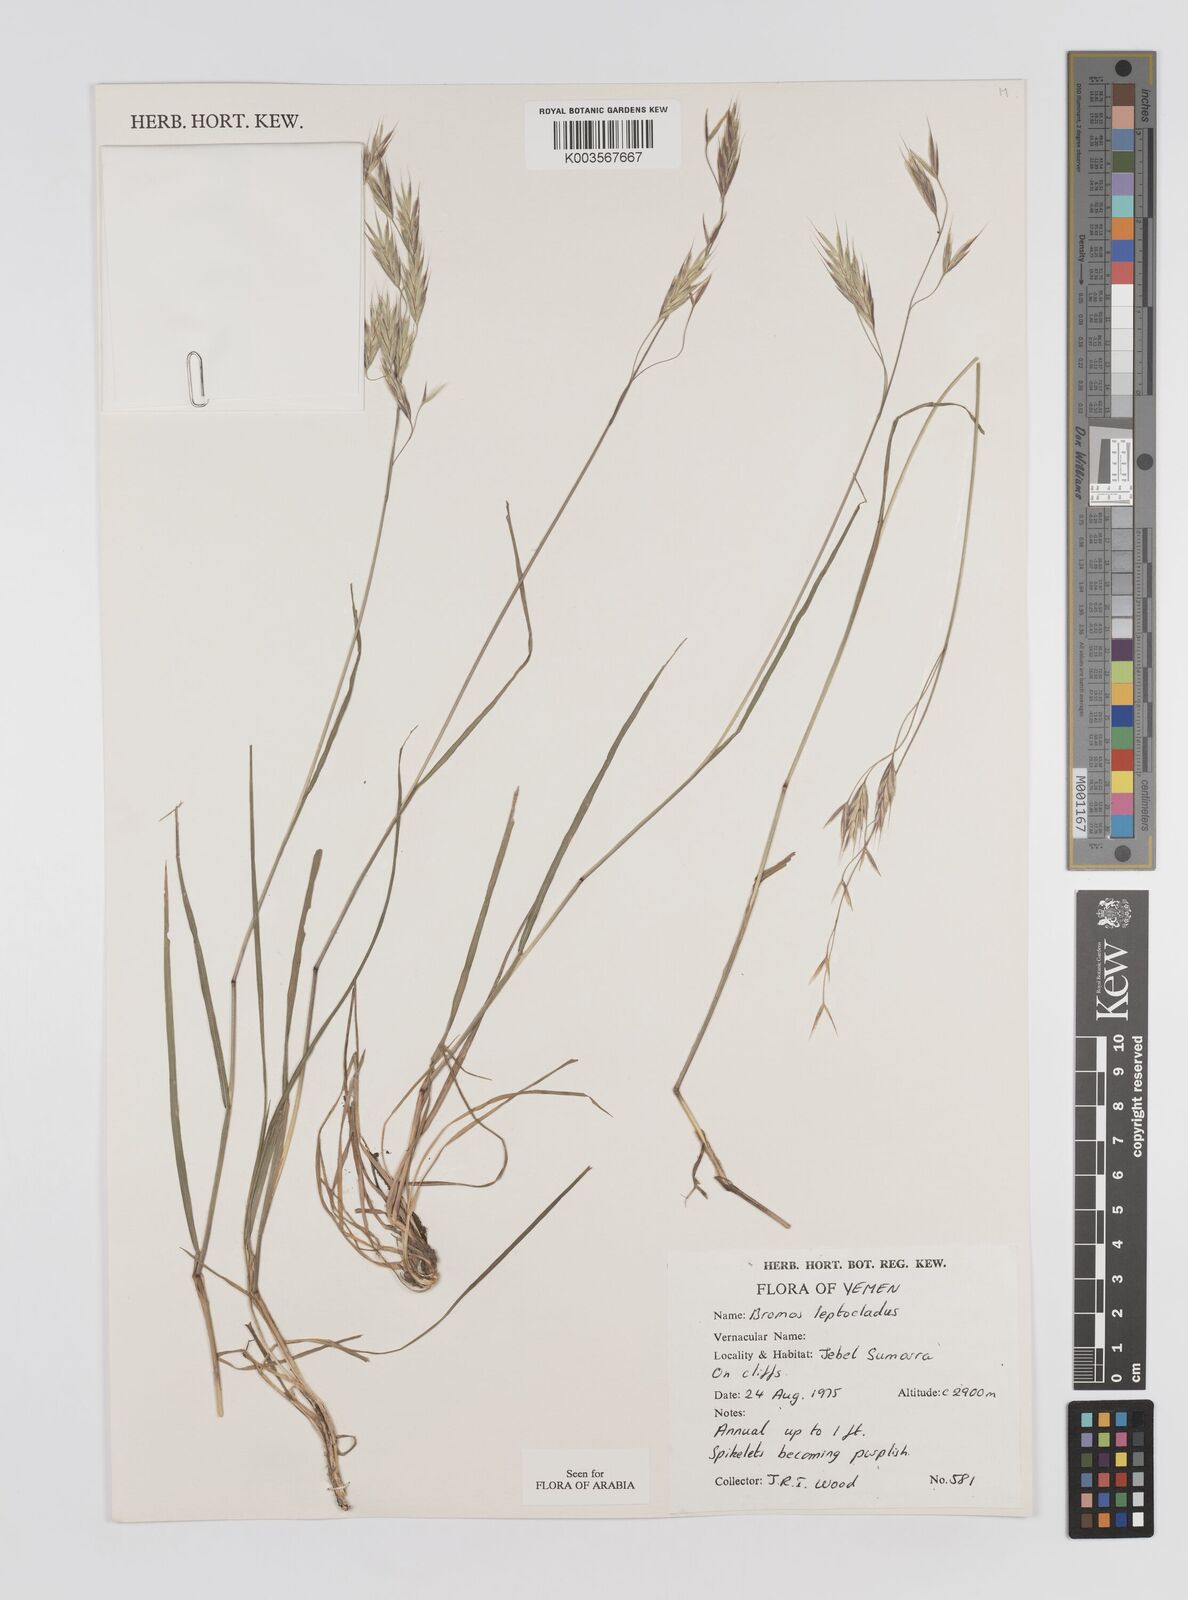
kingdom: Plantae
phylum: Tracheophyta
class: Liliopsida
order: Poales
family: Poaceae
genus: Bromus
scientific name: Bromus leptoclados
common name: Mountain bromegrass
